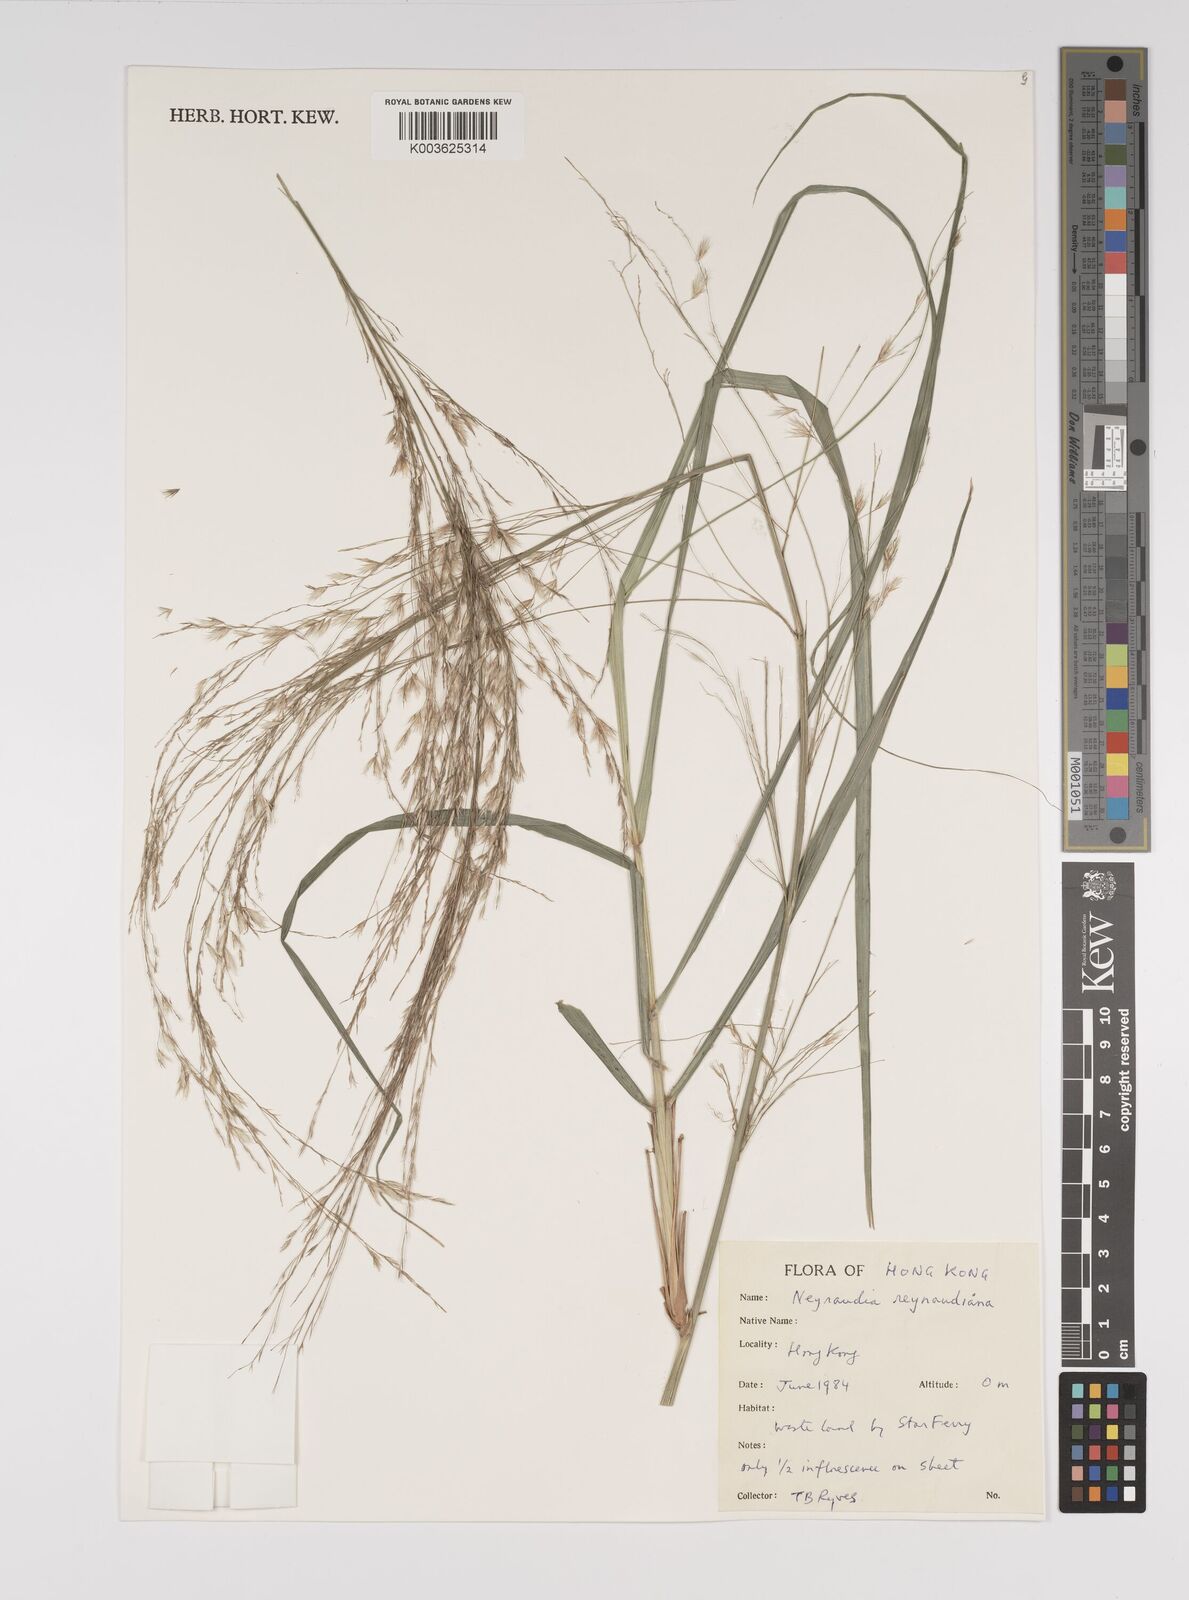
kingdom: Plantae
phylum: Tracheophyta
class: Liliopsida
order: Poales
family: Poaceae
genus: Neyraudia
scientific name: Neyraudia reynaudiana
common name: Silkreed
